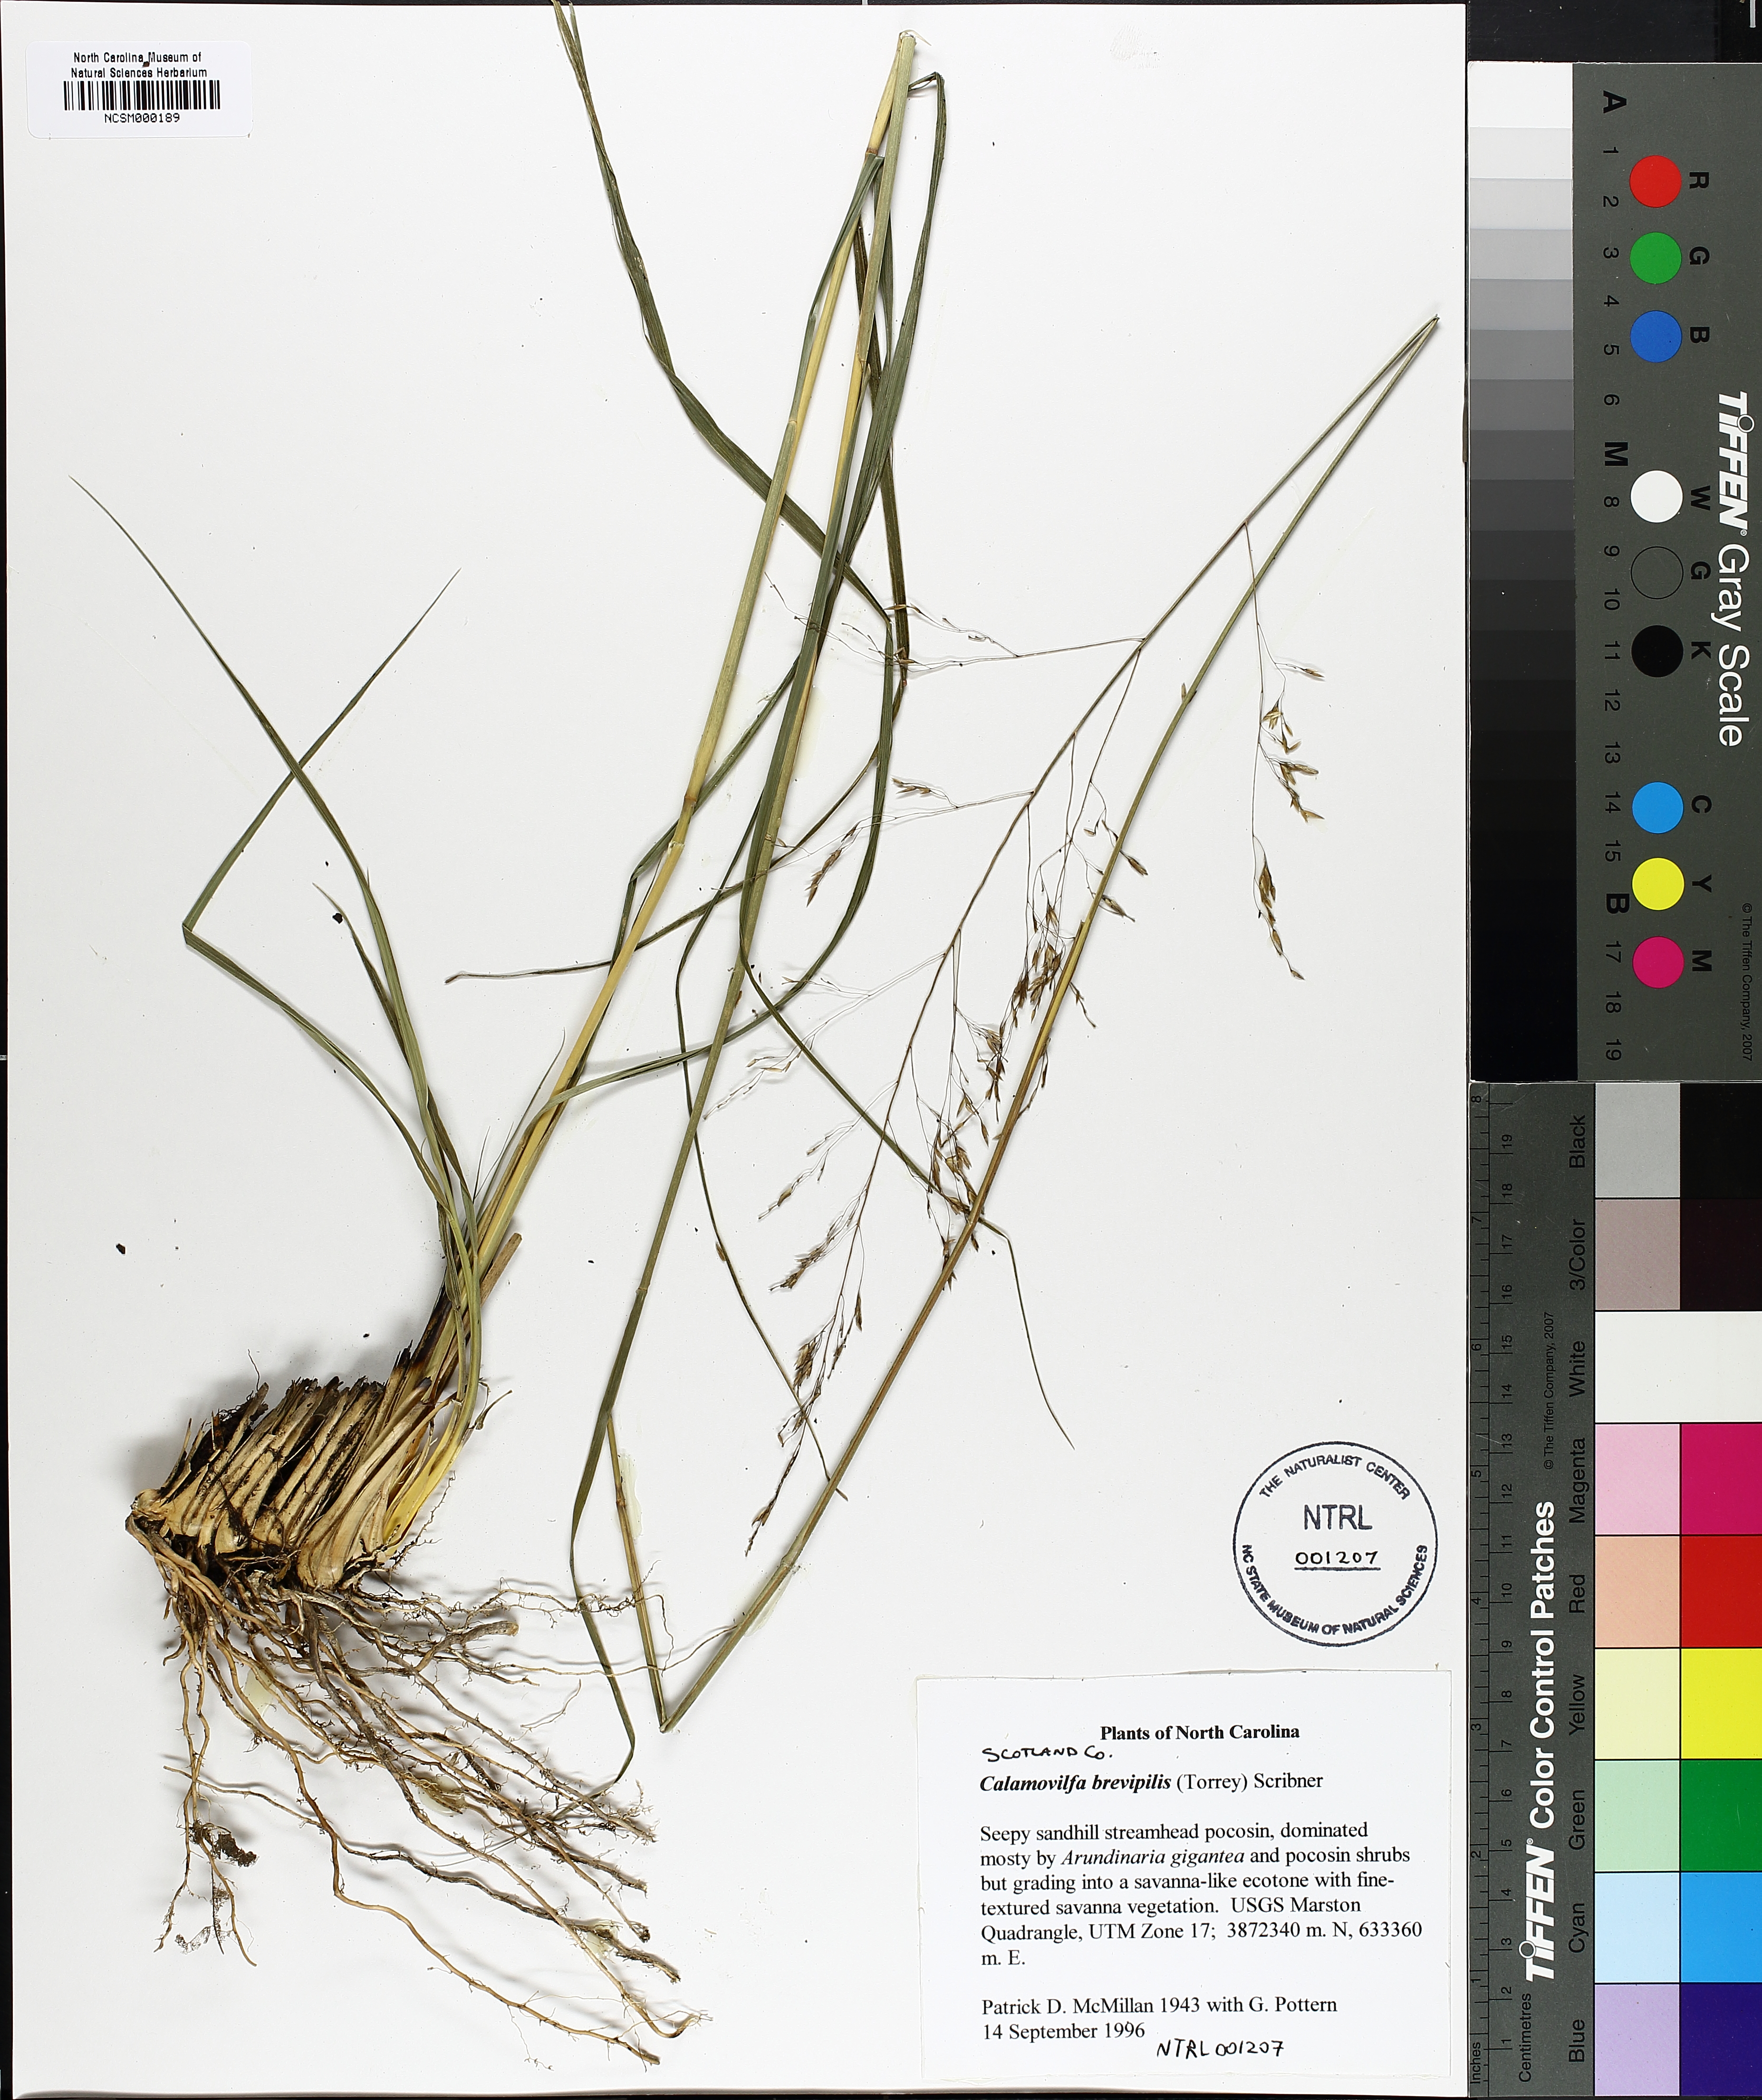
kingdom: Plantae
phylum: Tracheophyta
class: Liliopsida
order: Poales
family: Poaceae
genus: Sporobolus
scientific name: Sporobolus brevipilis
